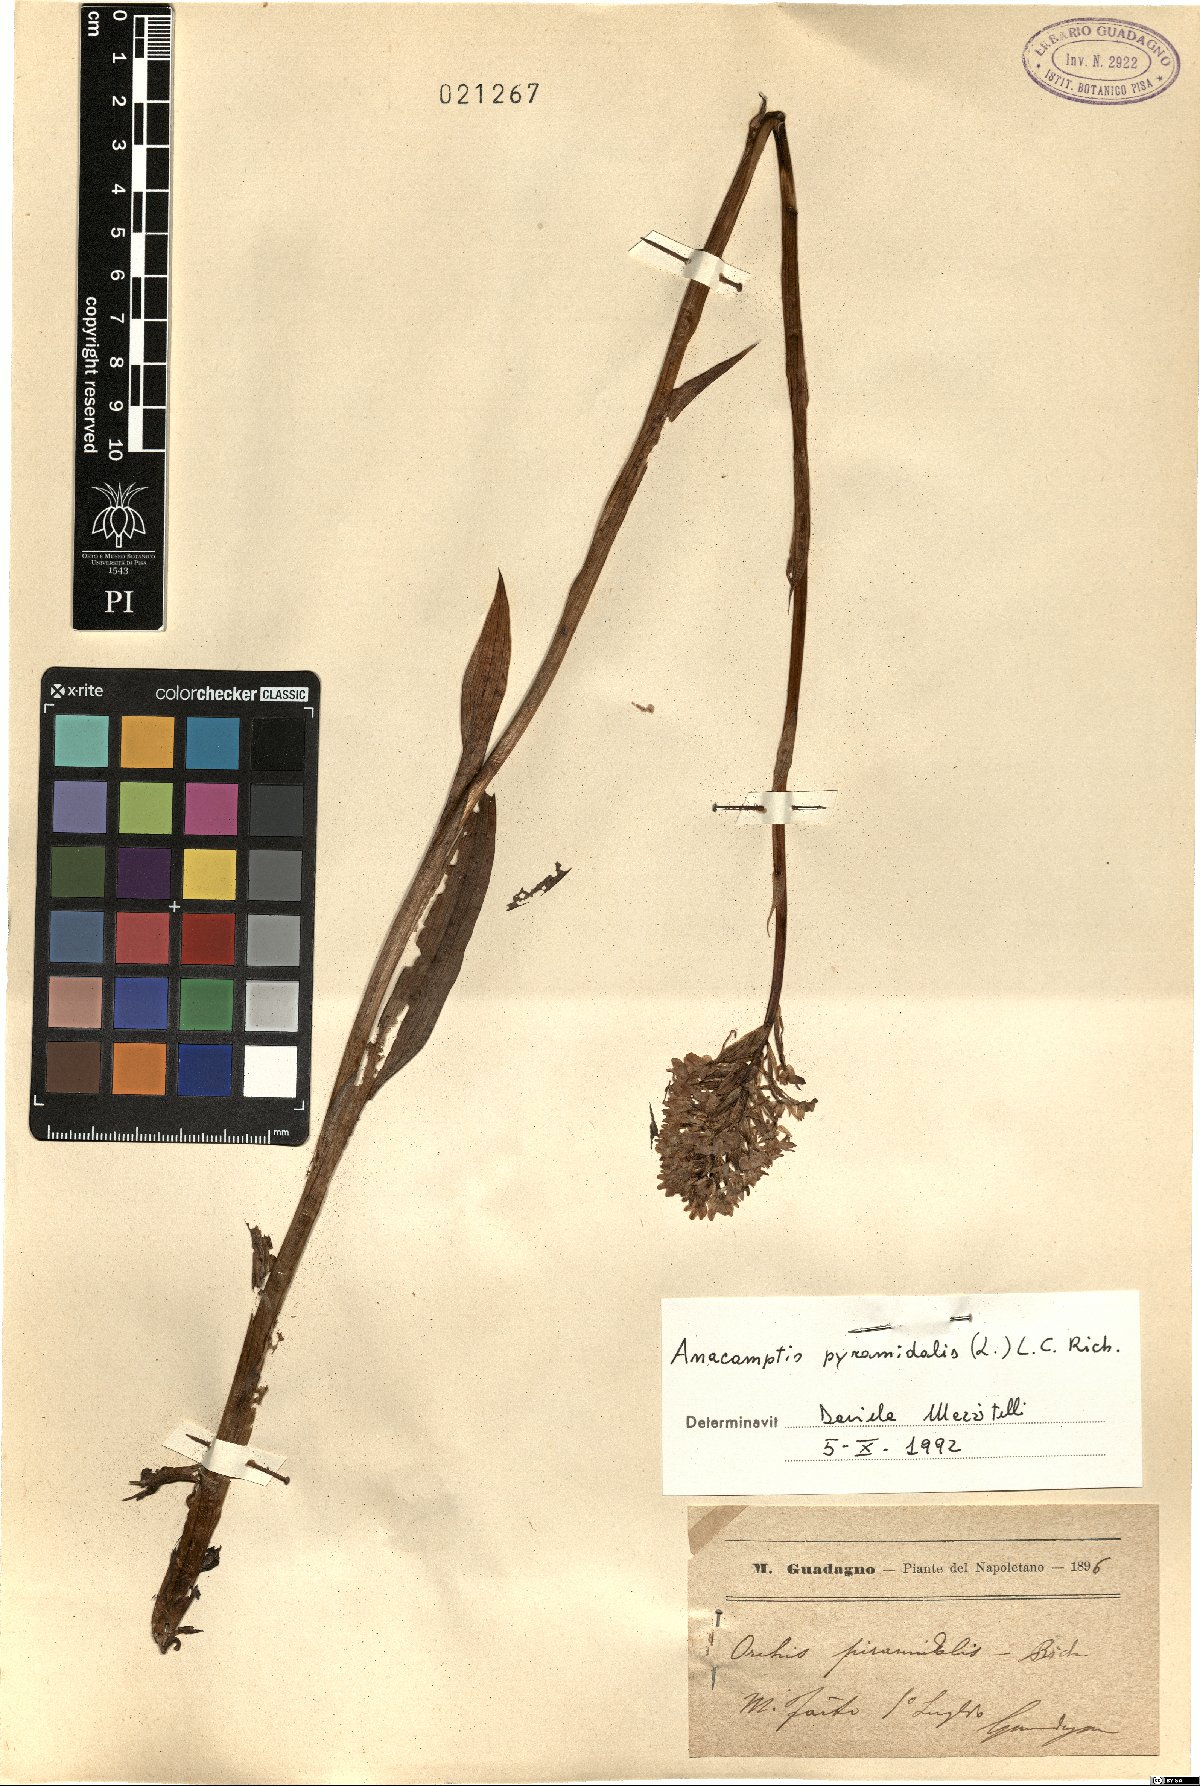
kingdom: Plantae
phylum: Tracheophyta
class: Liliopsida
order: Asparagales
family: Orchidaceae
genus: Anacamptis
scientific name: Anacamptis pyramidalis
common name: Pyramidal orchid
